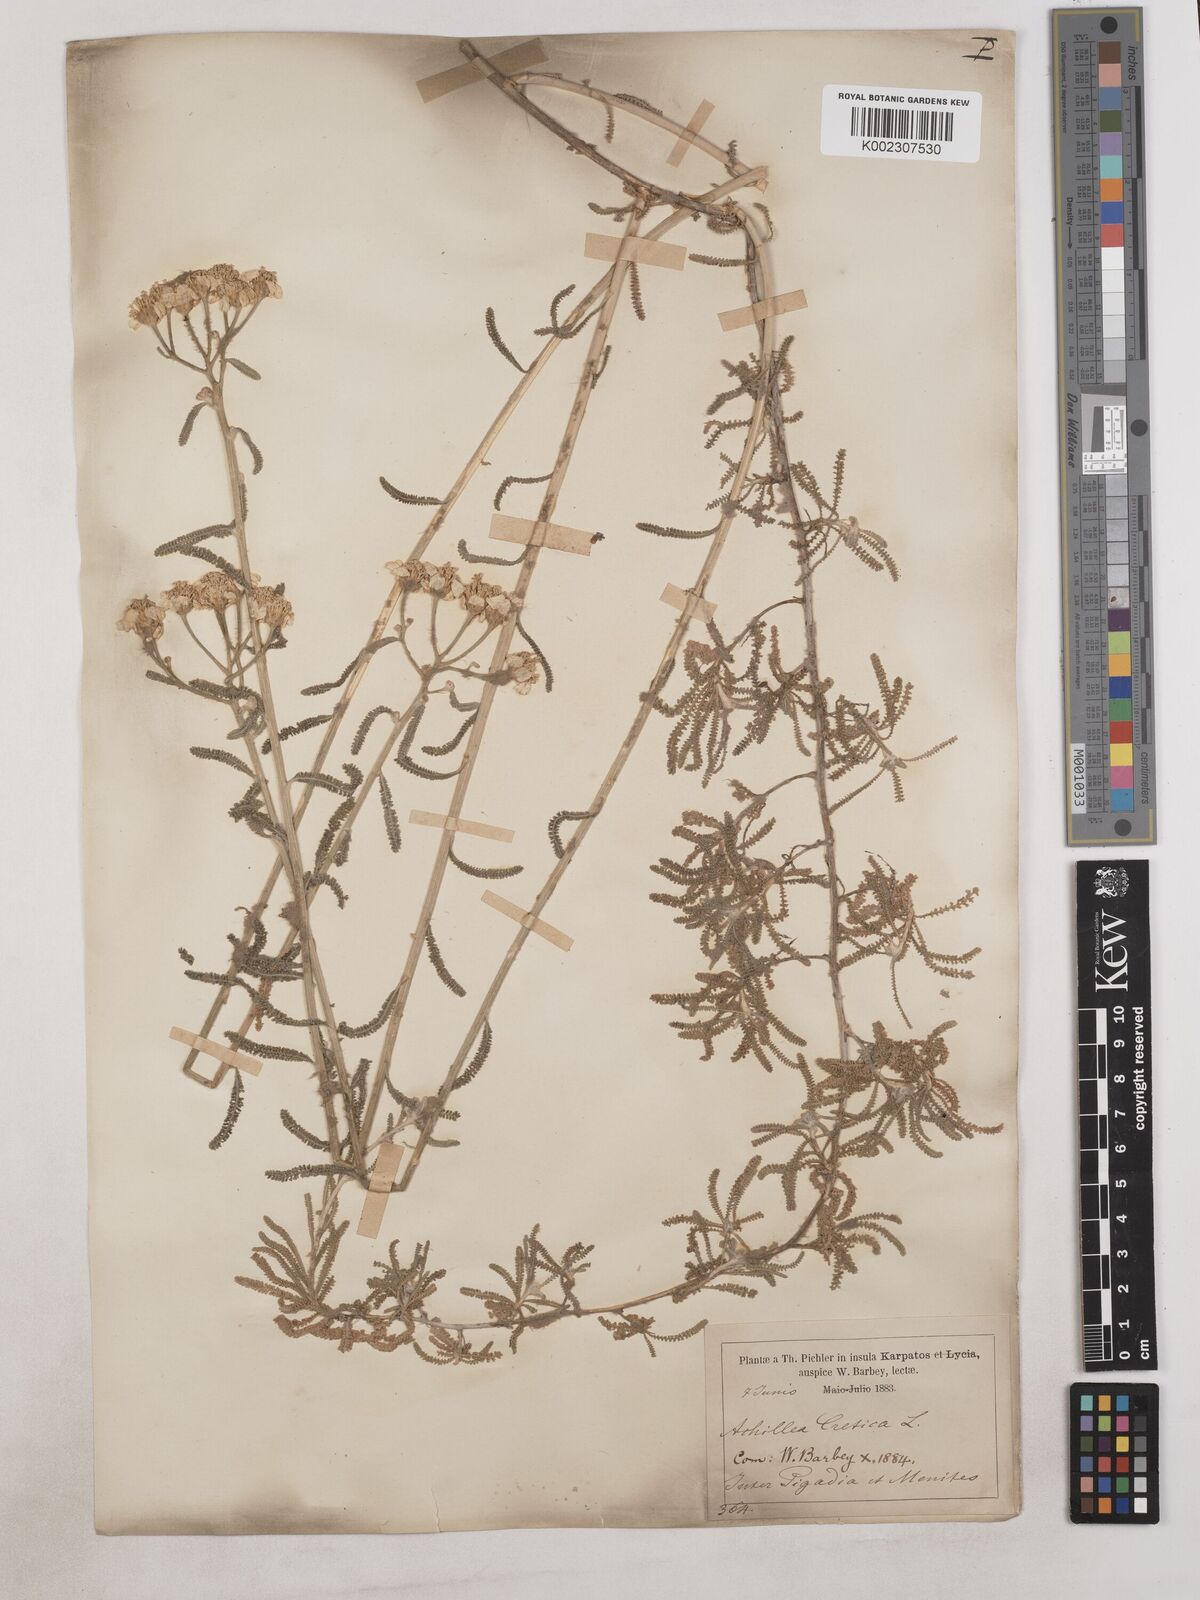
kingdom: Plantae
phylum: Tracheophyta
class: Magnoliopsida
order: Asterales
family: Asteraceae
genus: Achillea
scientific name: Achillea cretica
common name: Chamomile-leaved lavender-cotton
